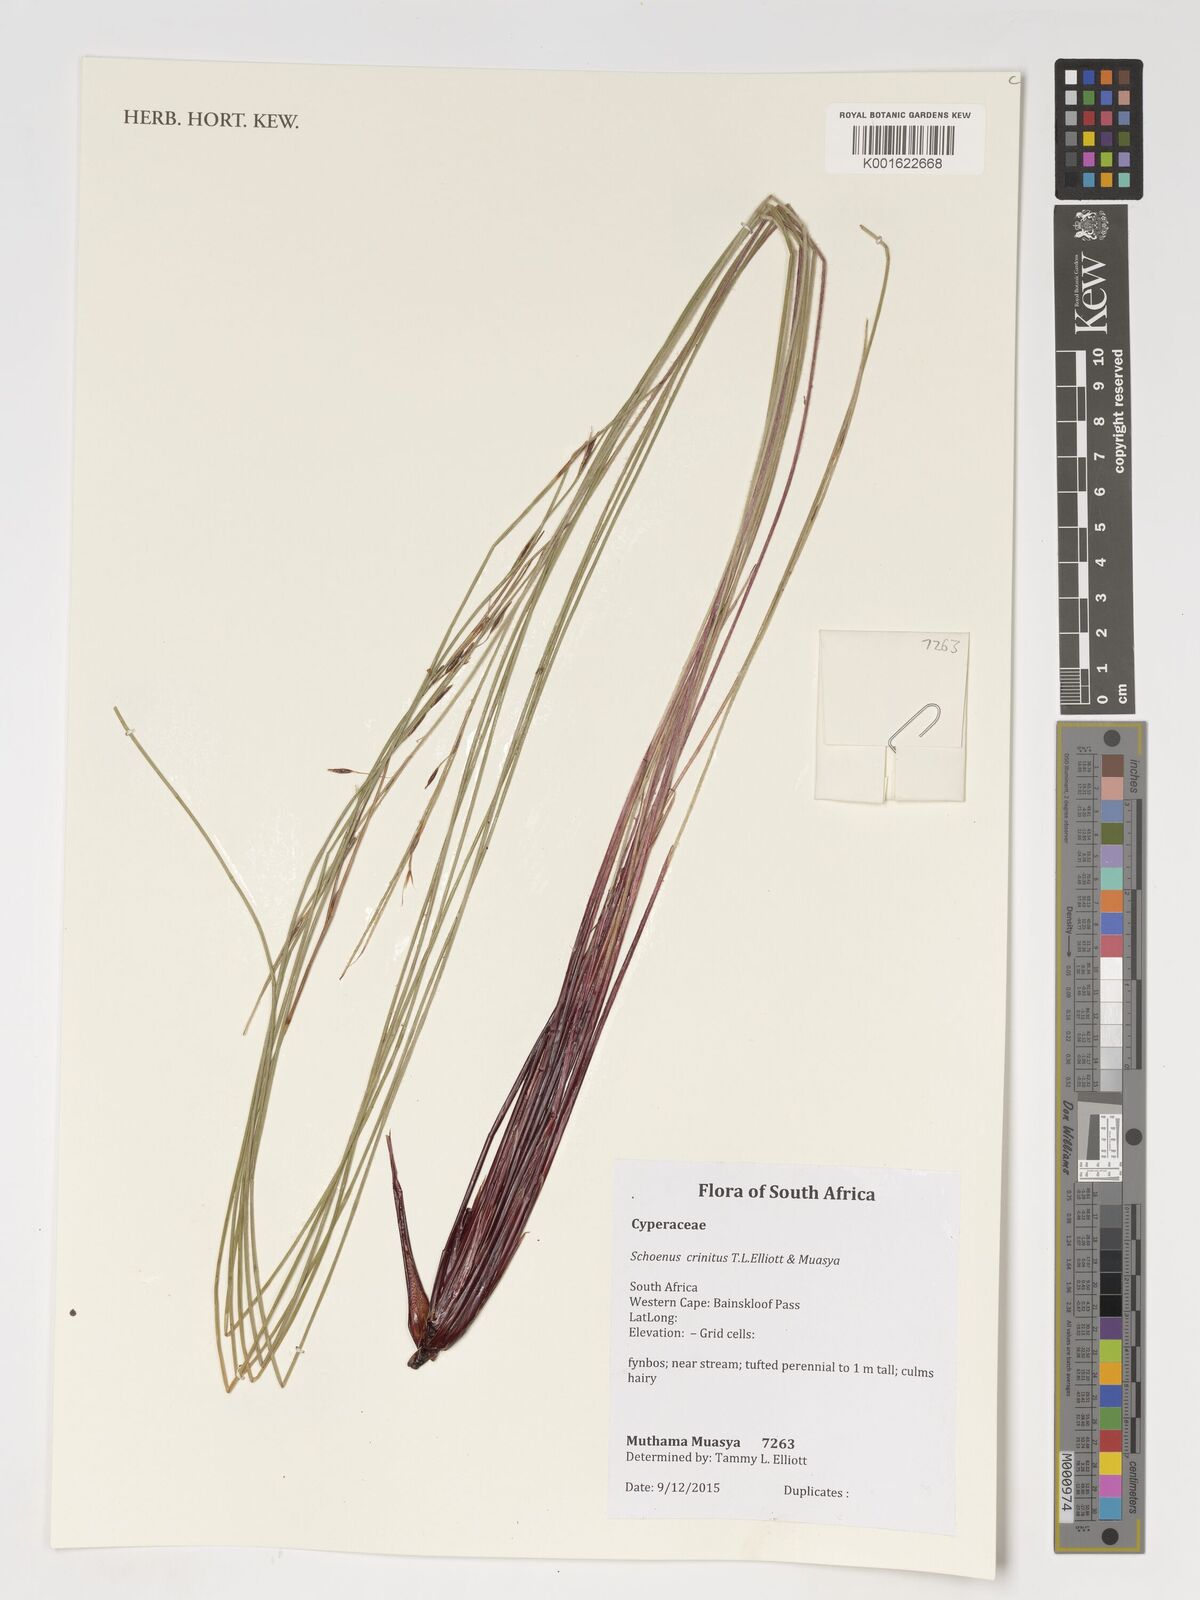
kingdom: Plantae
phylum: Tracheophyta
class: Liliopsida
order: Poales
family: Cyperaceae
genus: Schoenus
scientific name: Schoenus
